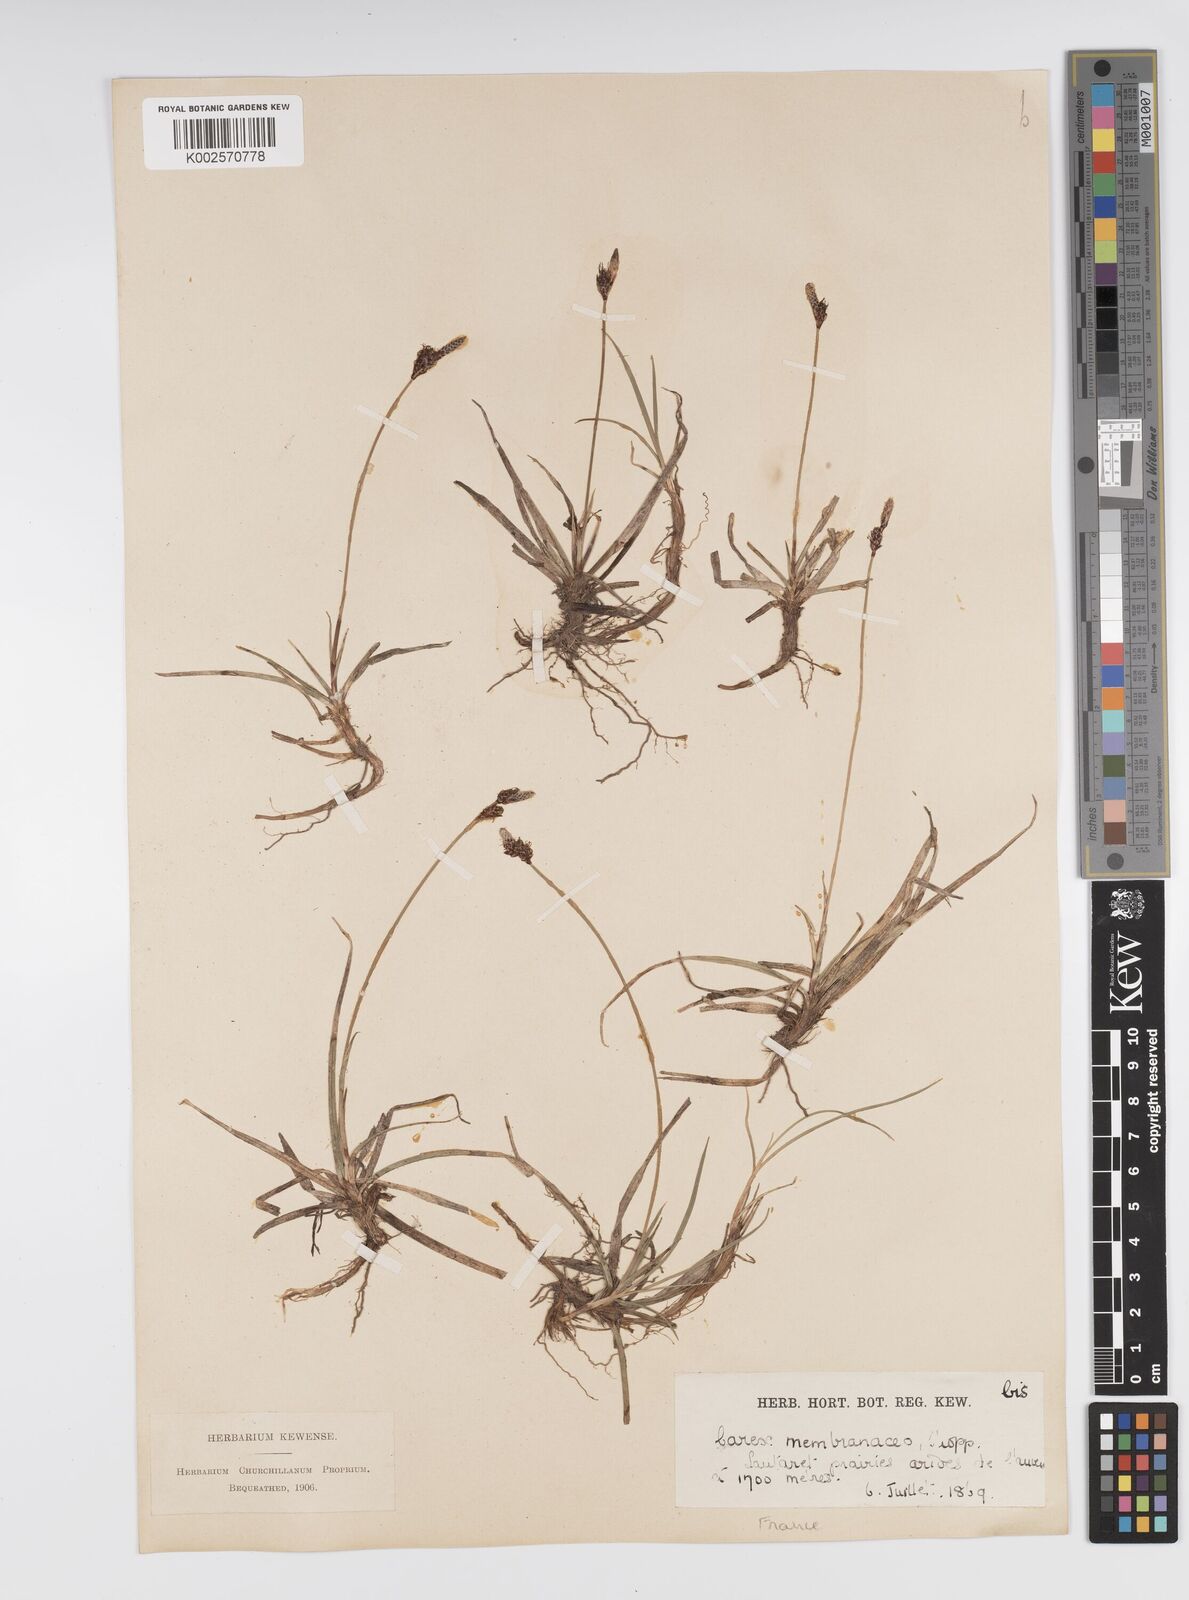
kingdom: Plantae
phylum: Tracheophyta
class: Liliopsida
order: Poales
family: Cyperaceae
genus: Carex
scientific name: Carex ericetorum
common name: Rare spring-sedge
